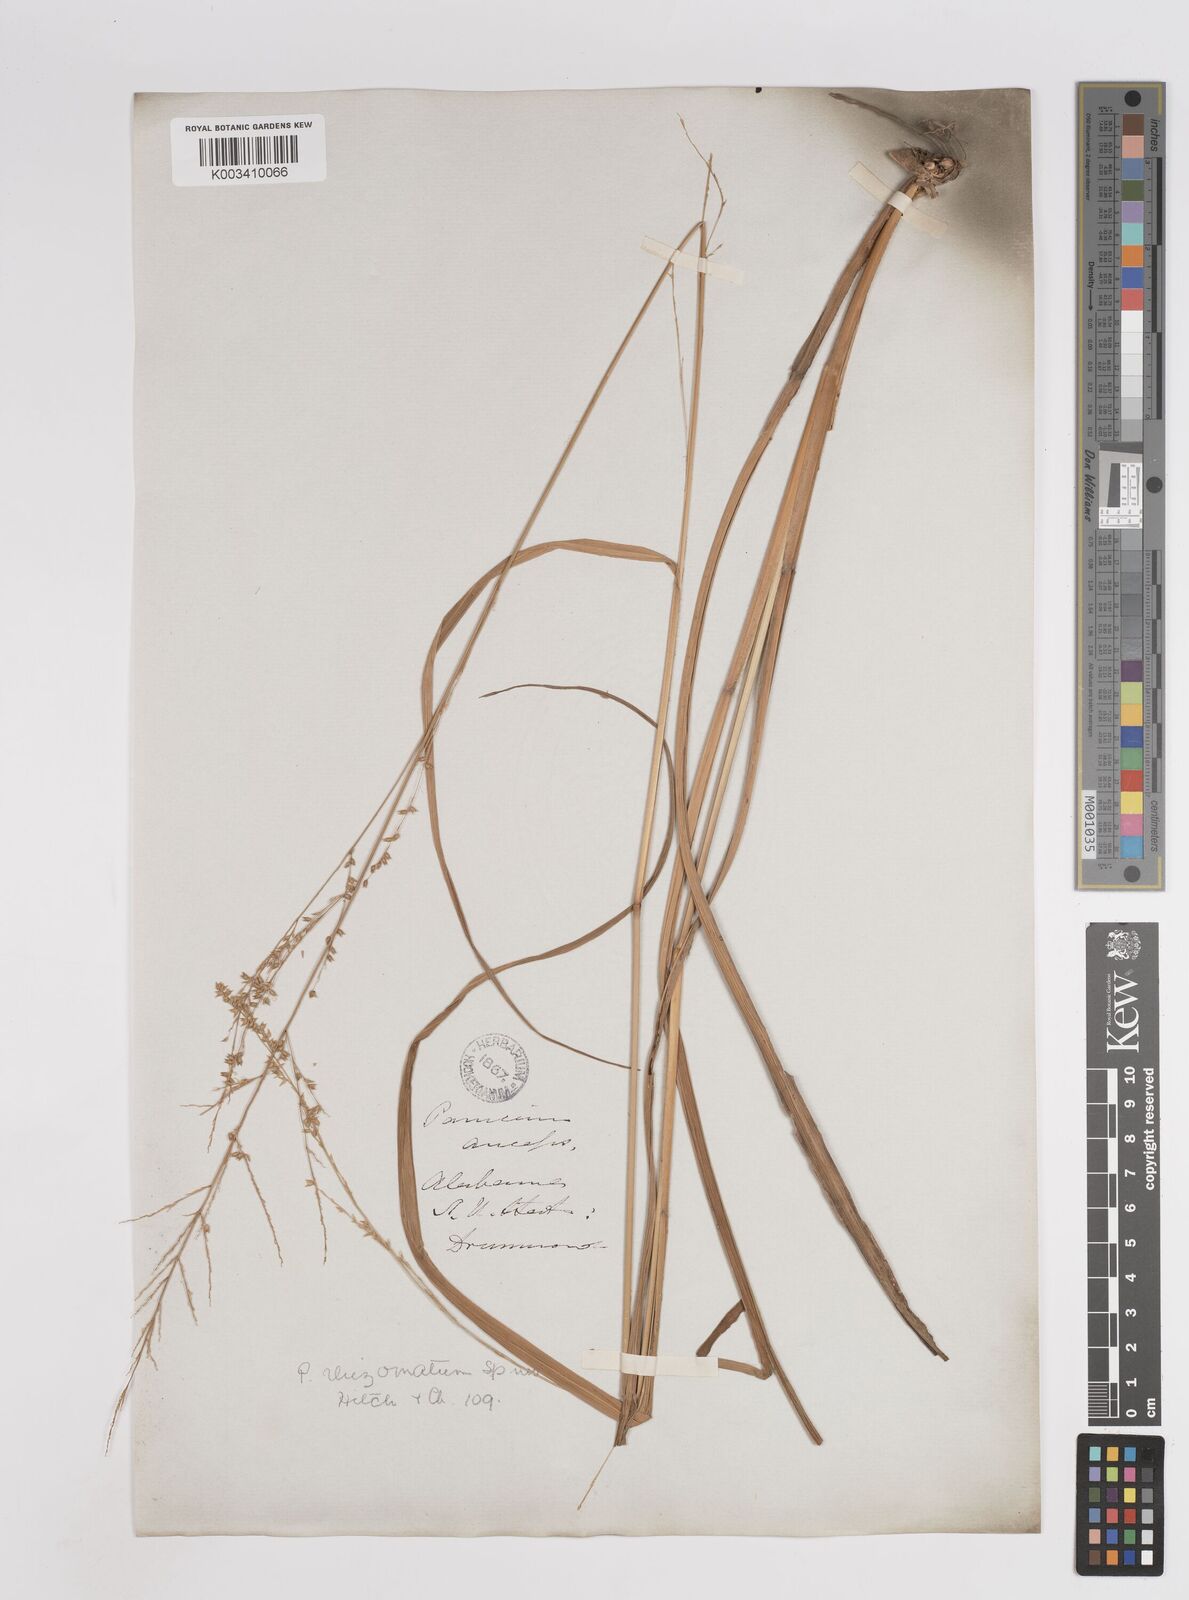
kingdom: Plantae
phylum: Tracheophyta
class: Liliopsida
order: Poales
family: Poaceae
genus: Coleataenia
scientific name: Coleataenia anceps
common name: Beaked panic grass
